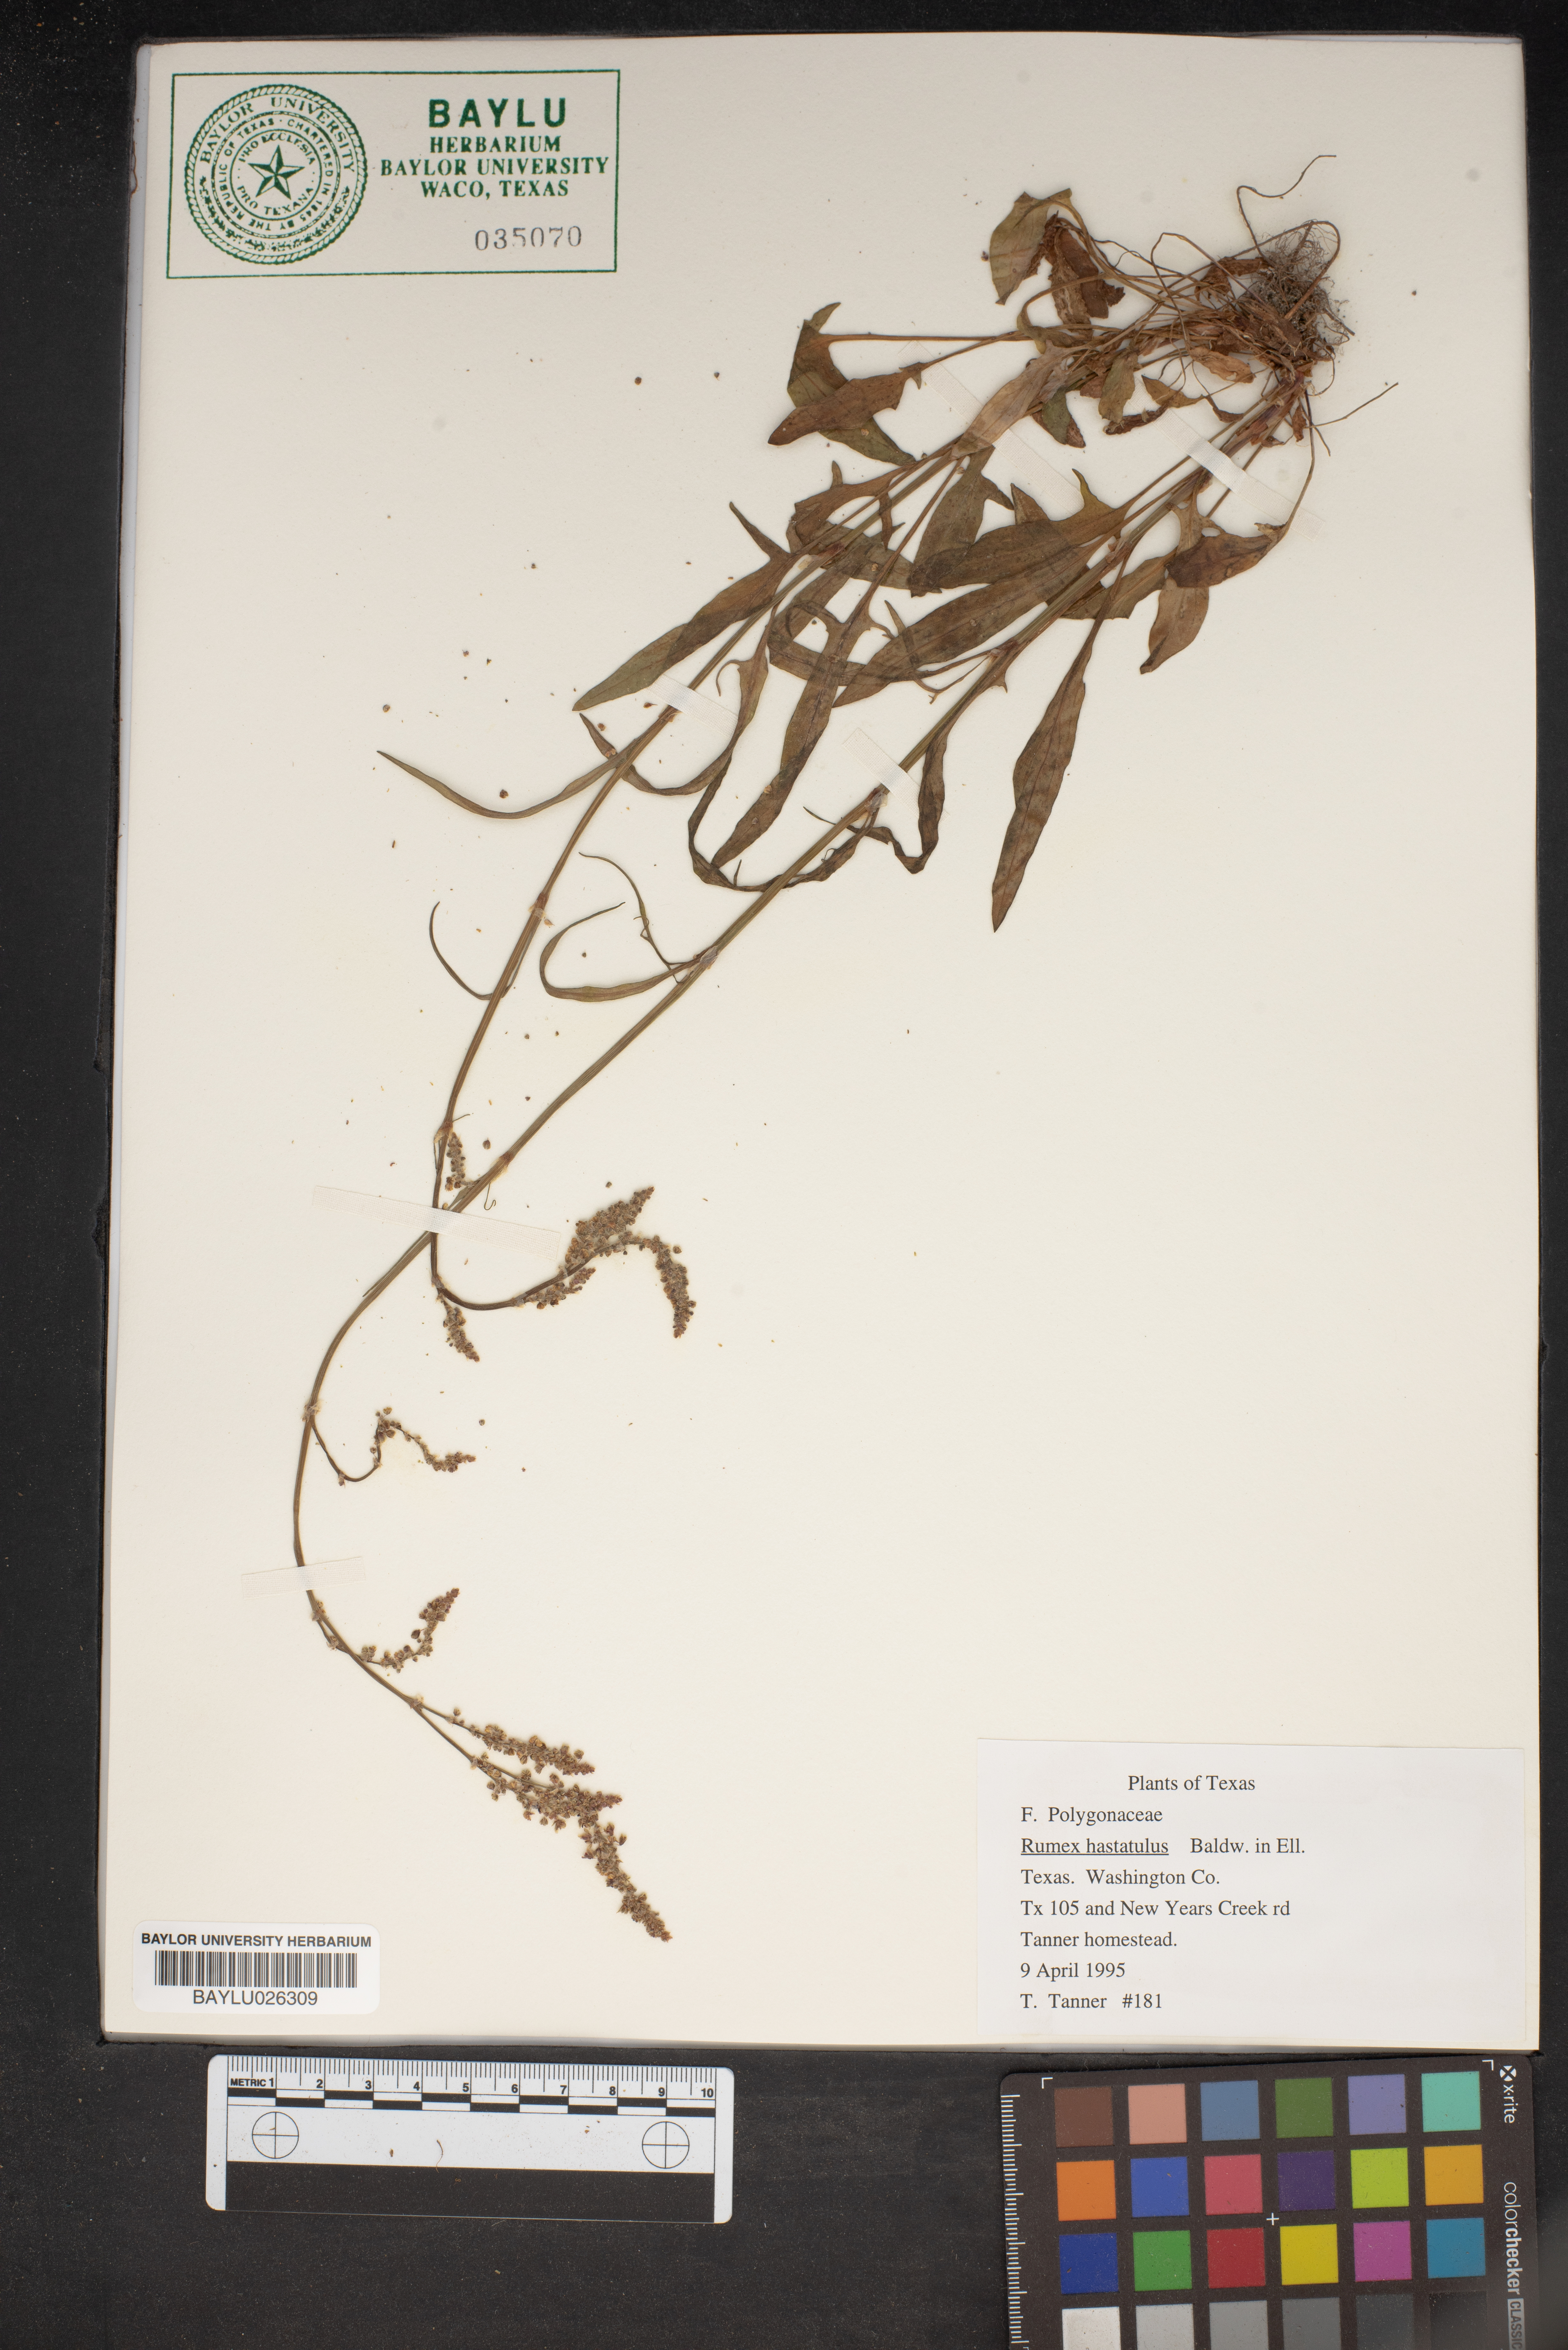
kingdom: Plantae
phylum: Tracheophyta
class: Magnoliopsida
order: Caryophyllales
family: Polygonaceae
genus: Rumex
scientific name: Rumex hastatulus
